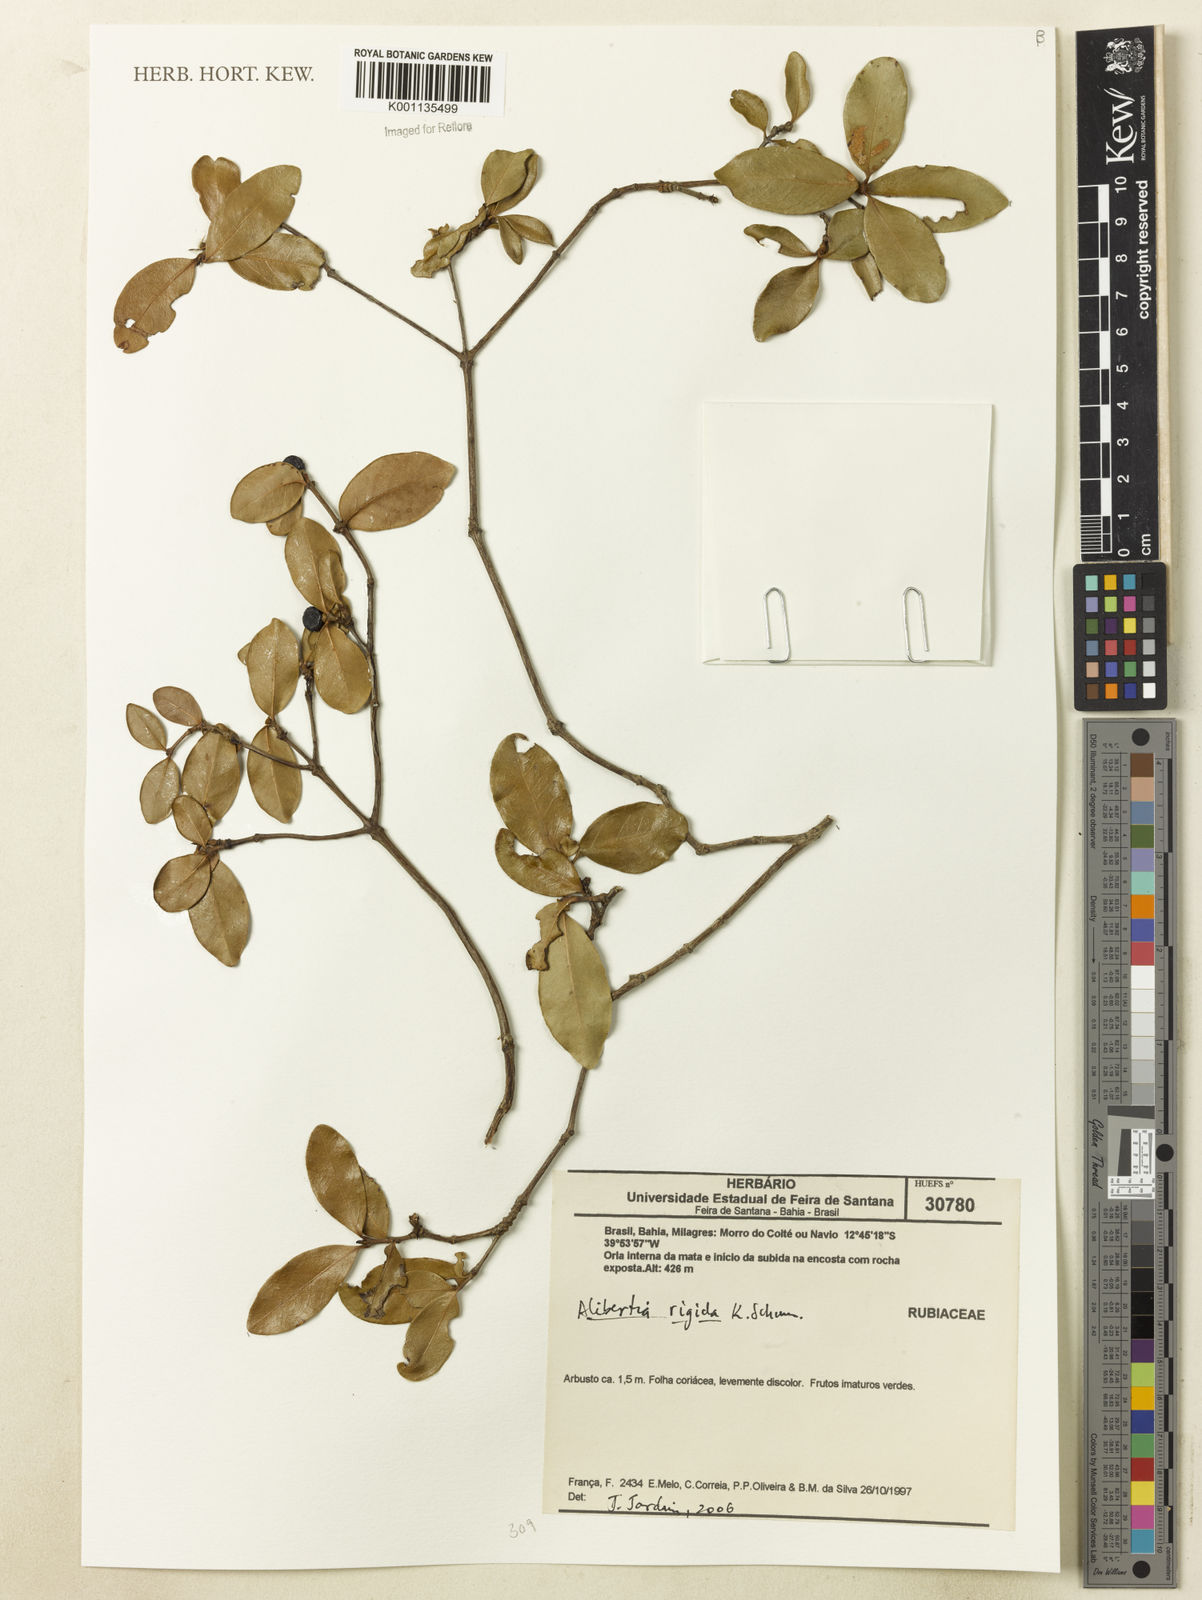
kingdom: Plantae
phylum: Tracheophyta
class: Magnoliopsida
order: Gentianales
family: Rubiaceae
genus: Cordiera
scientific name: Cordiera rigida
